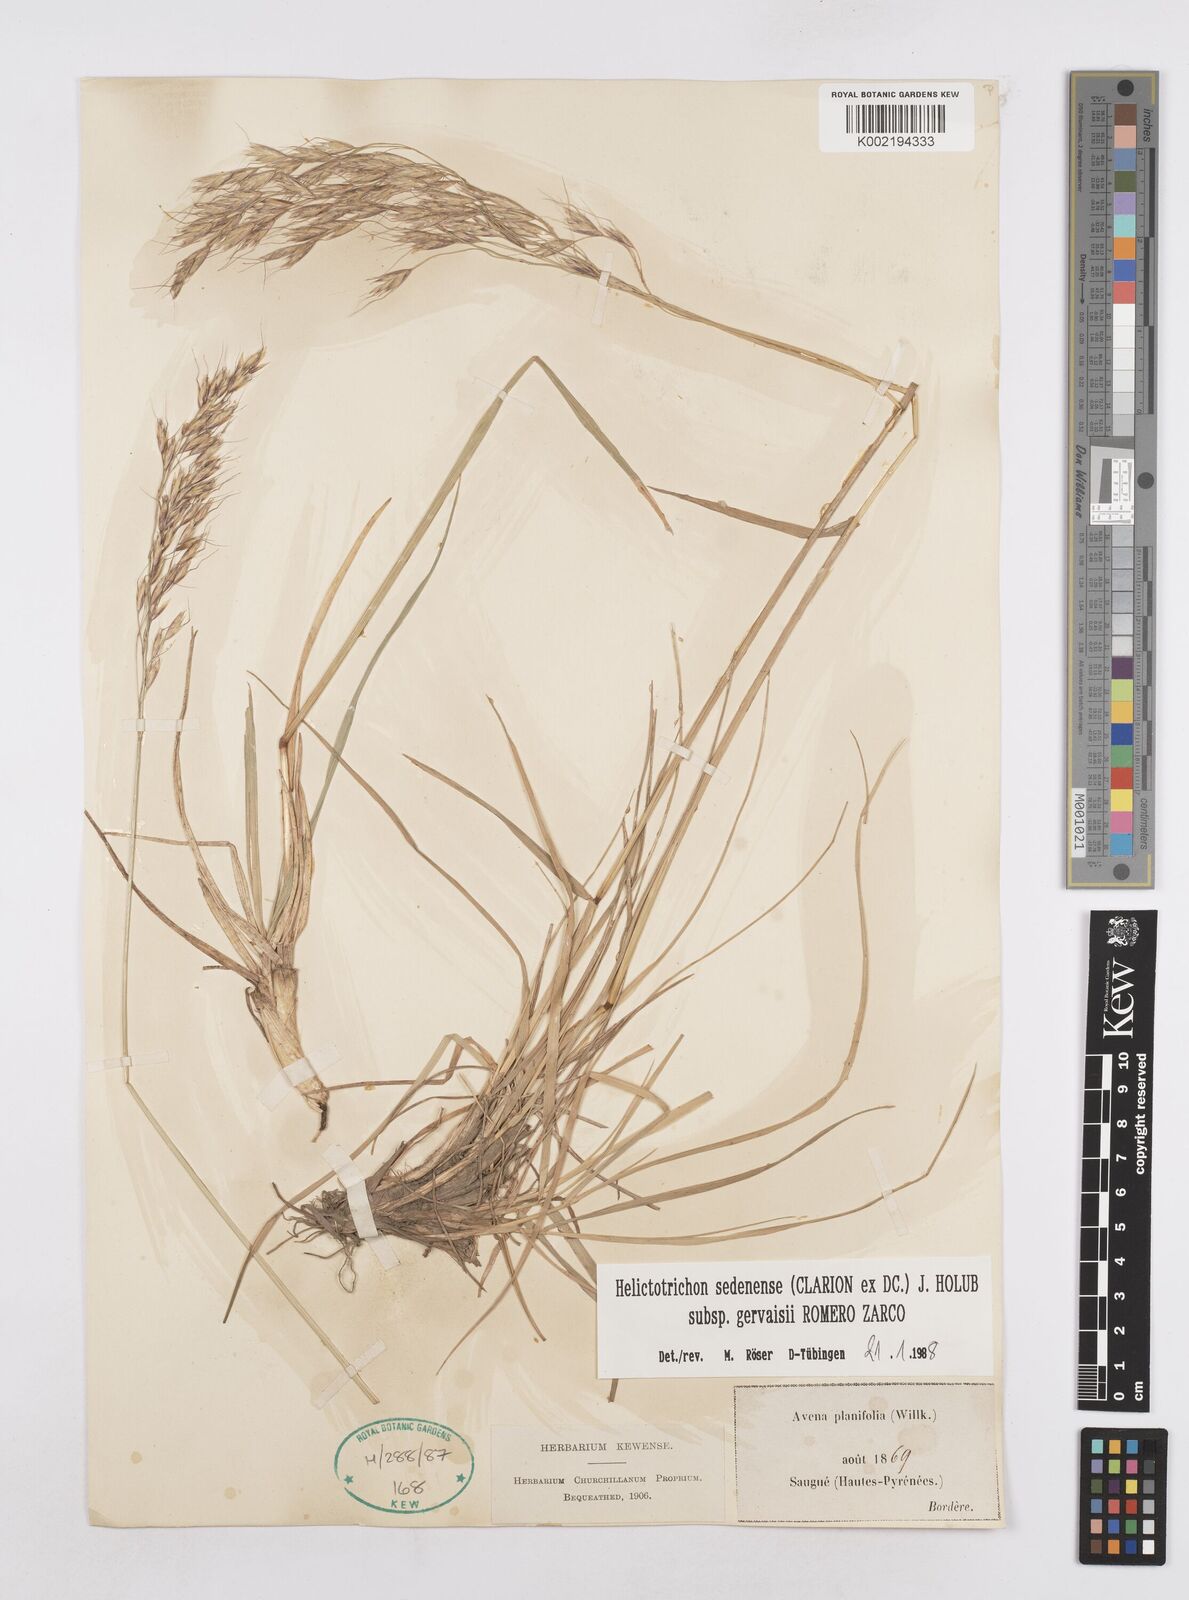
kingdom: Plantae
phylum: Tracheophyta
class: Liliopsida
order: Poales
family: Poaceae
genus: Helictotrichon
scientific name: Helictotrichon sedenense
